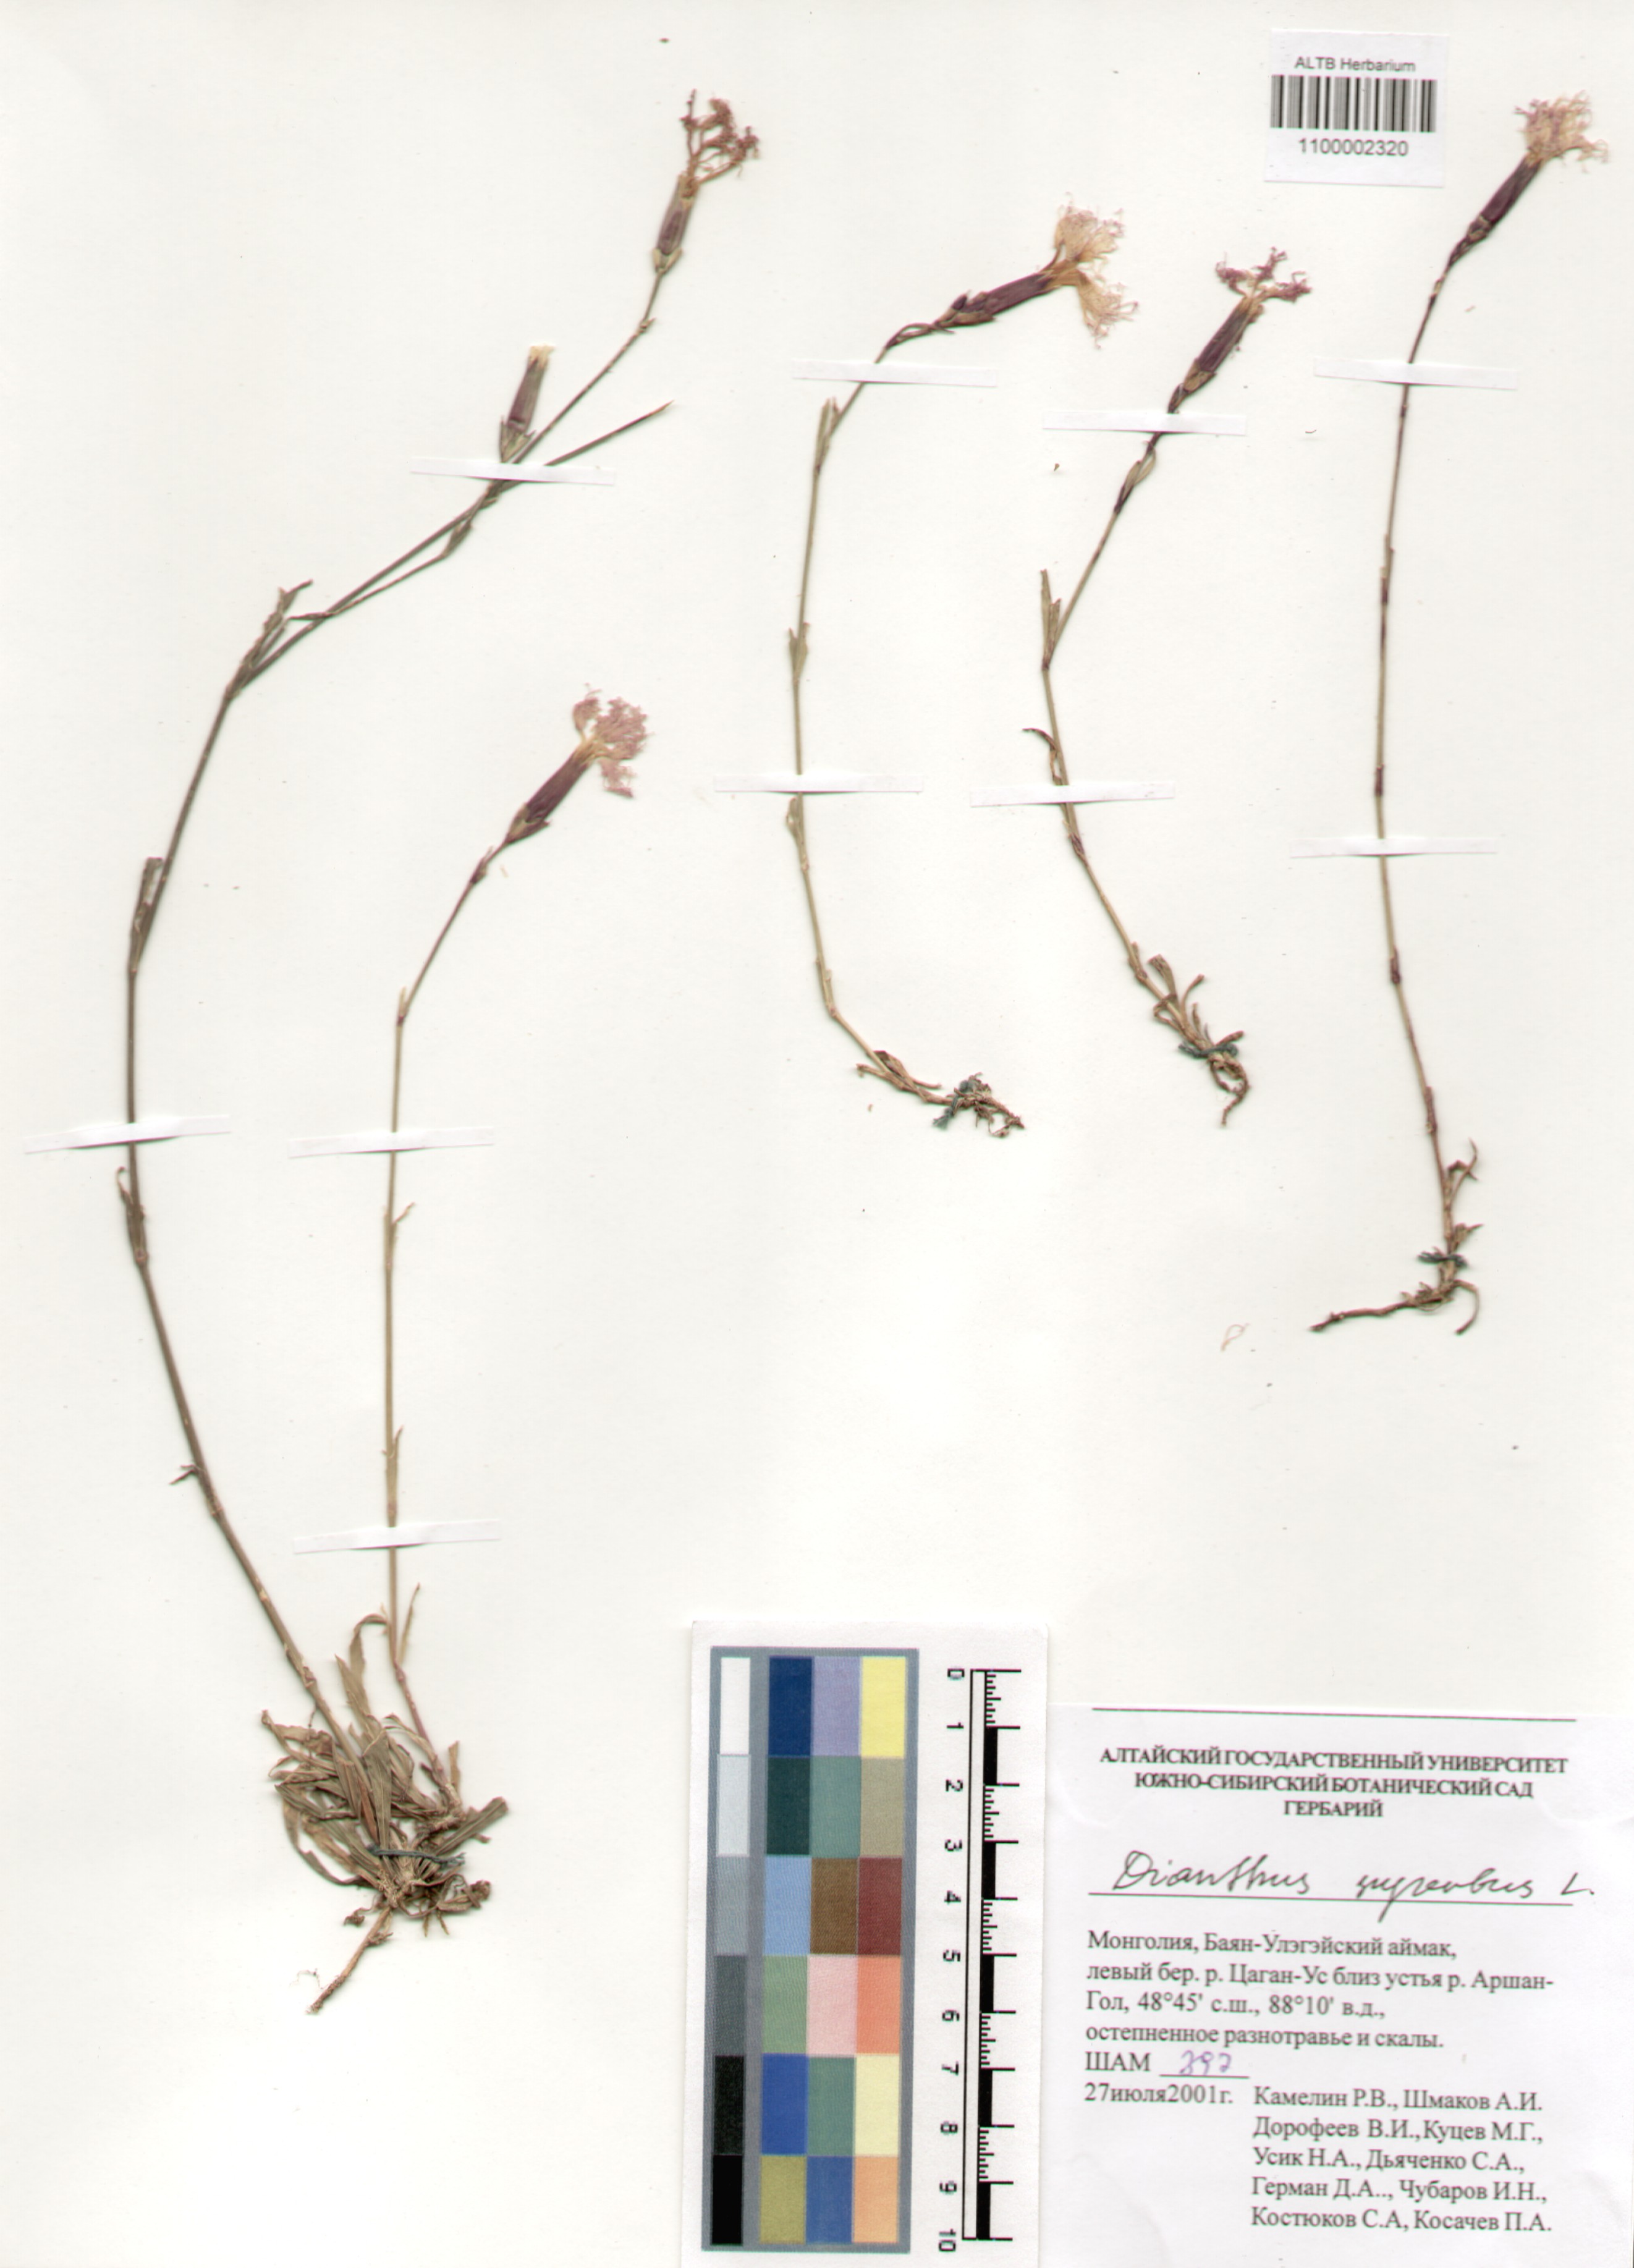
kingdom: Plantae
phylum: Tracheophyta
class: Magnoliopsida
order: Caryophyllales
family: Caryophyllaceae
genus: Dianthus
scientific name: Dianthus superbus
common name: Fringed pink
